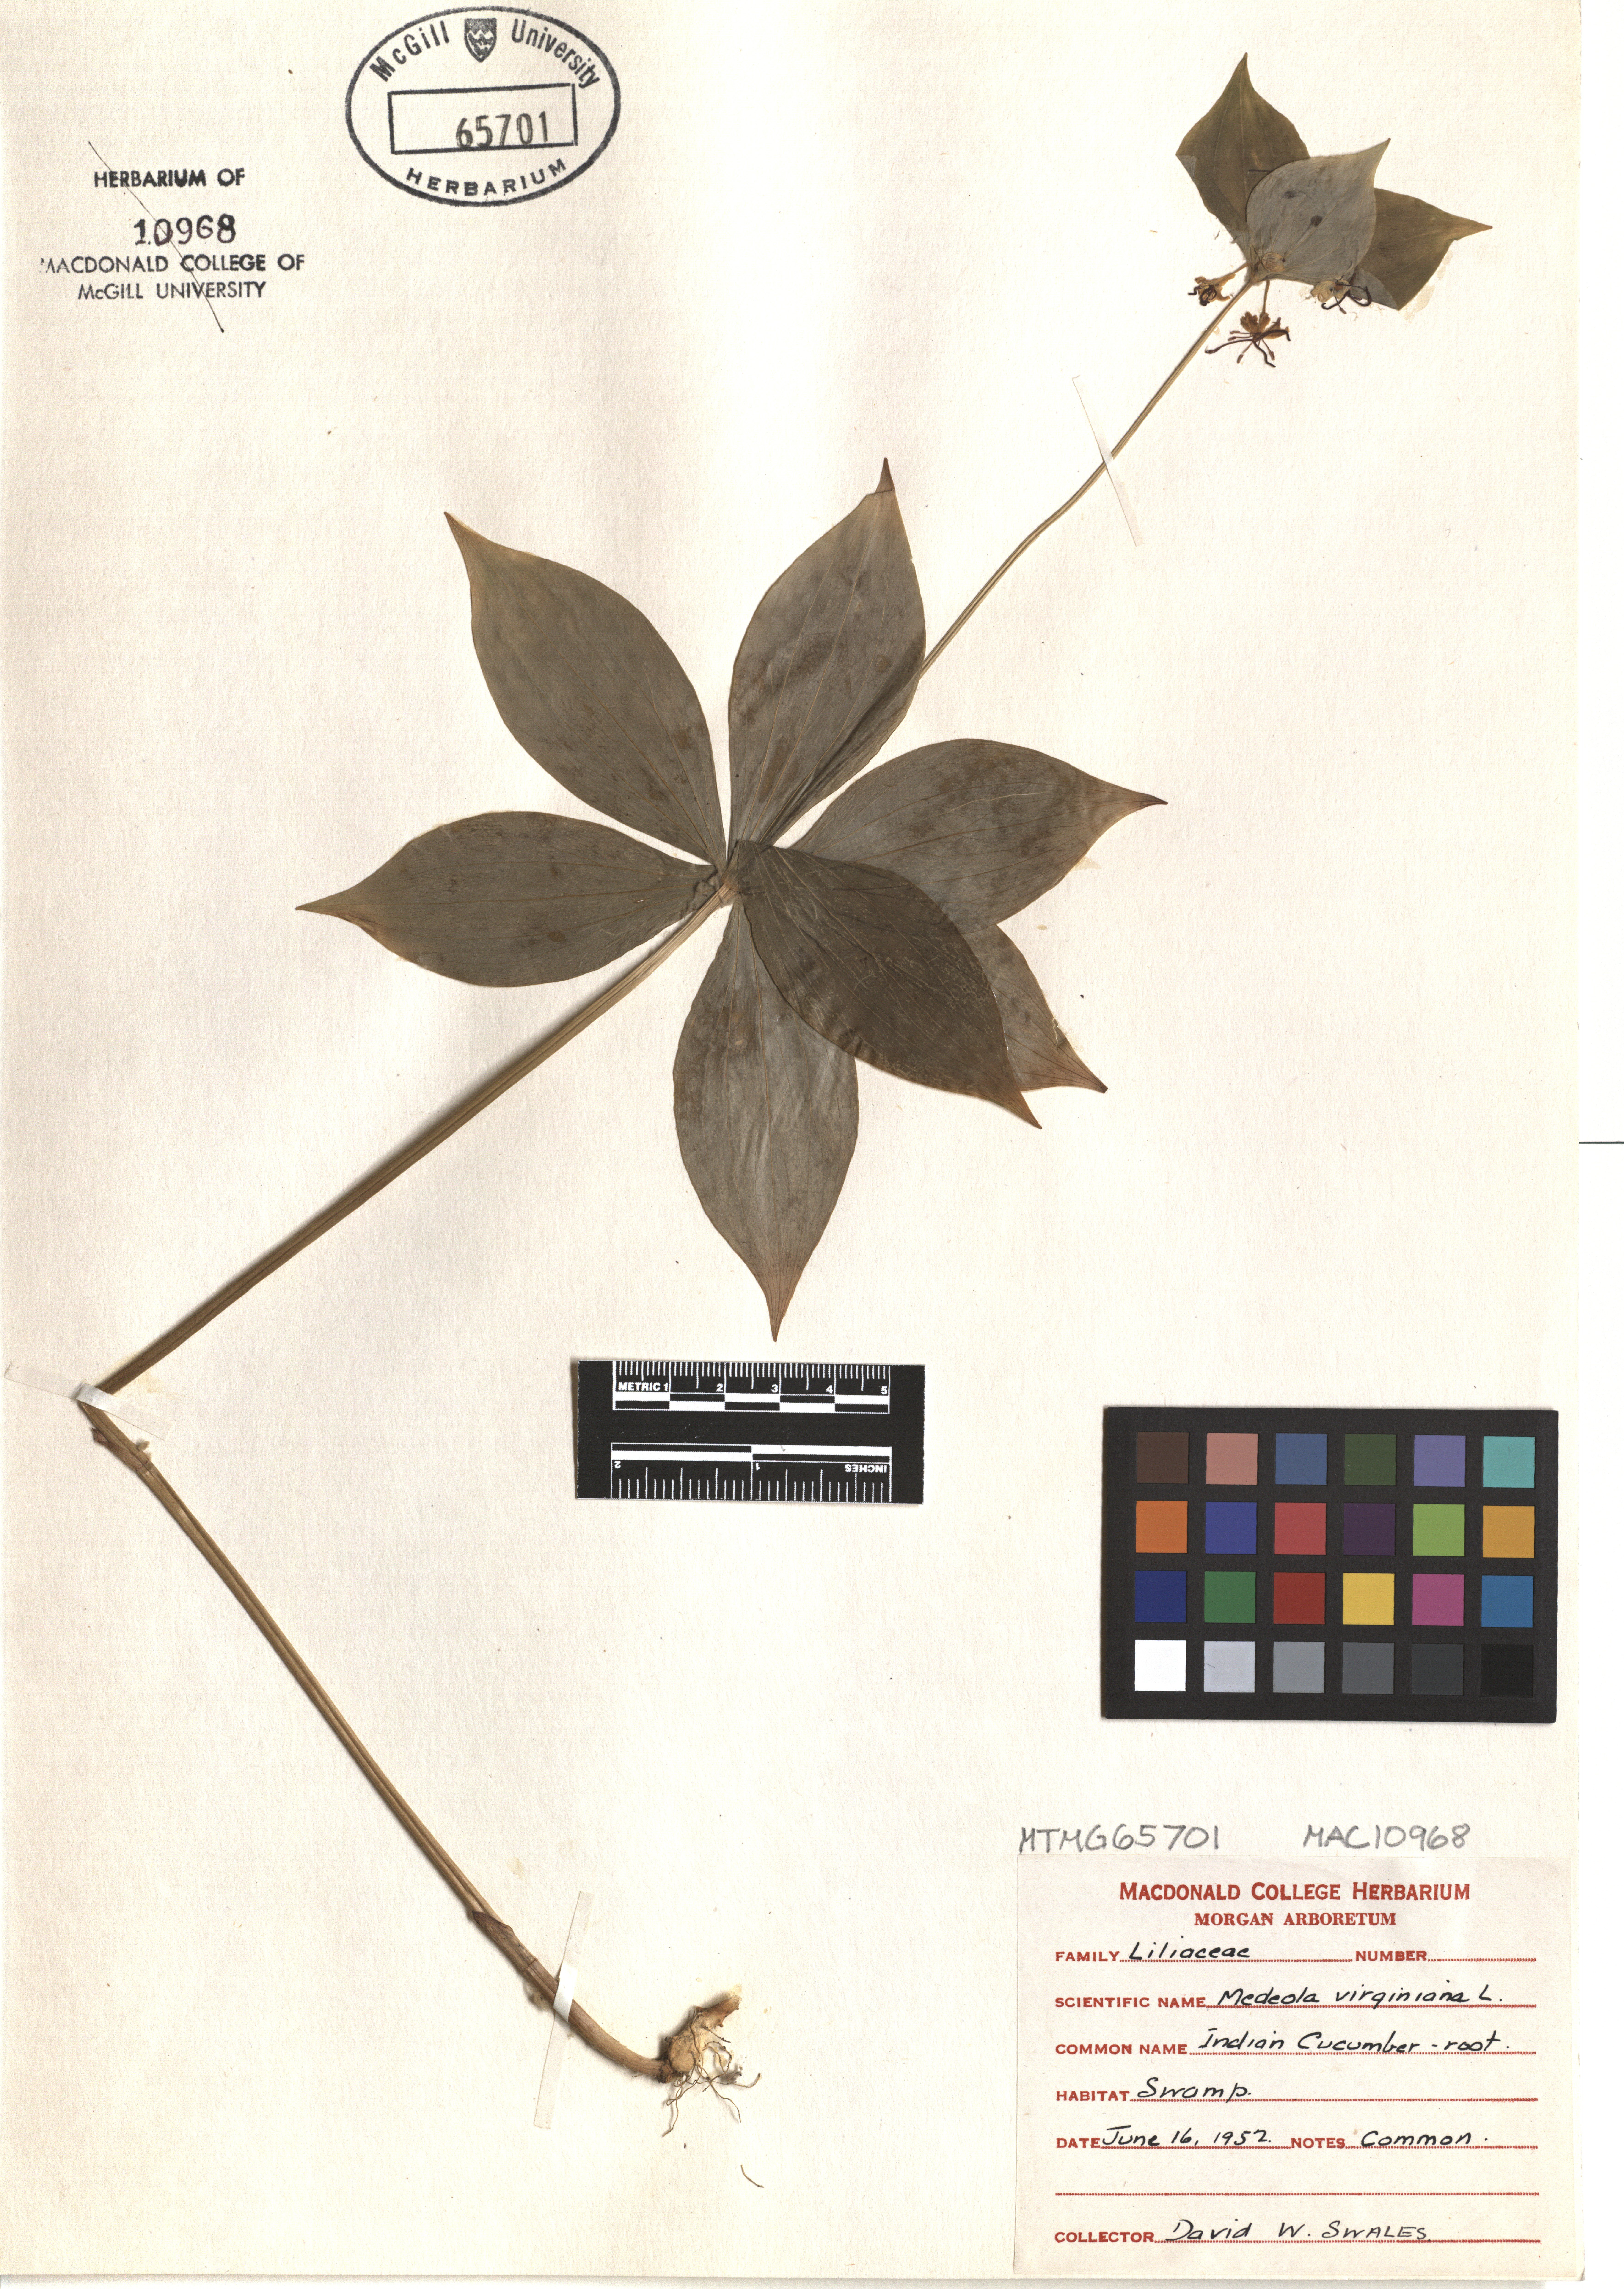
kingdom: Plantae
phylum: Tracheophyta
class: Liliopsida
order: Liliales
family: Liliaceae
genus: Medeola
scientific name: Medeola virginiana
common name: Indian cucumber-root
